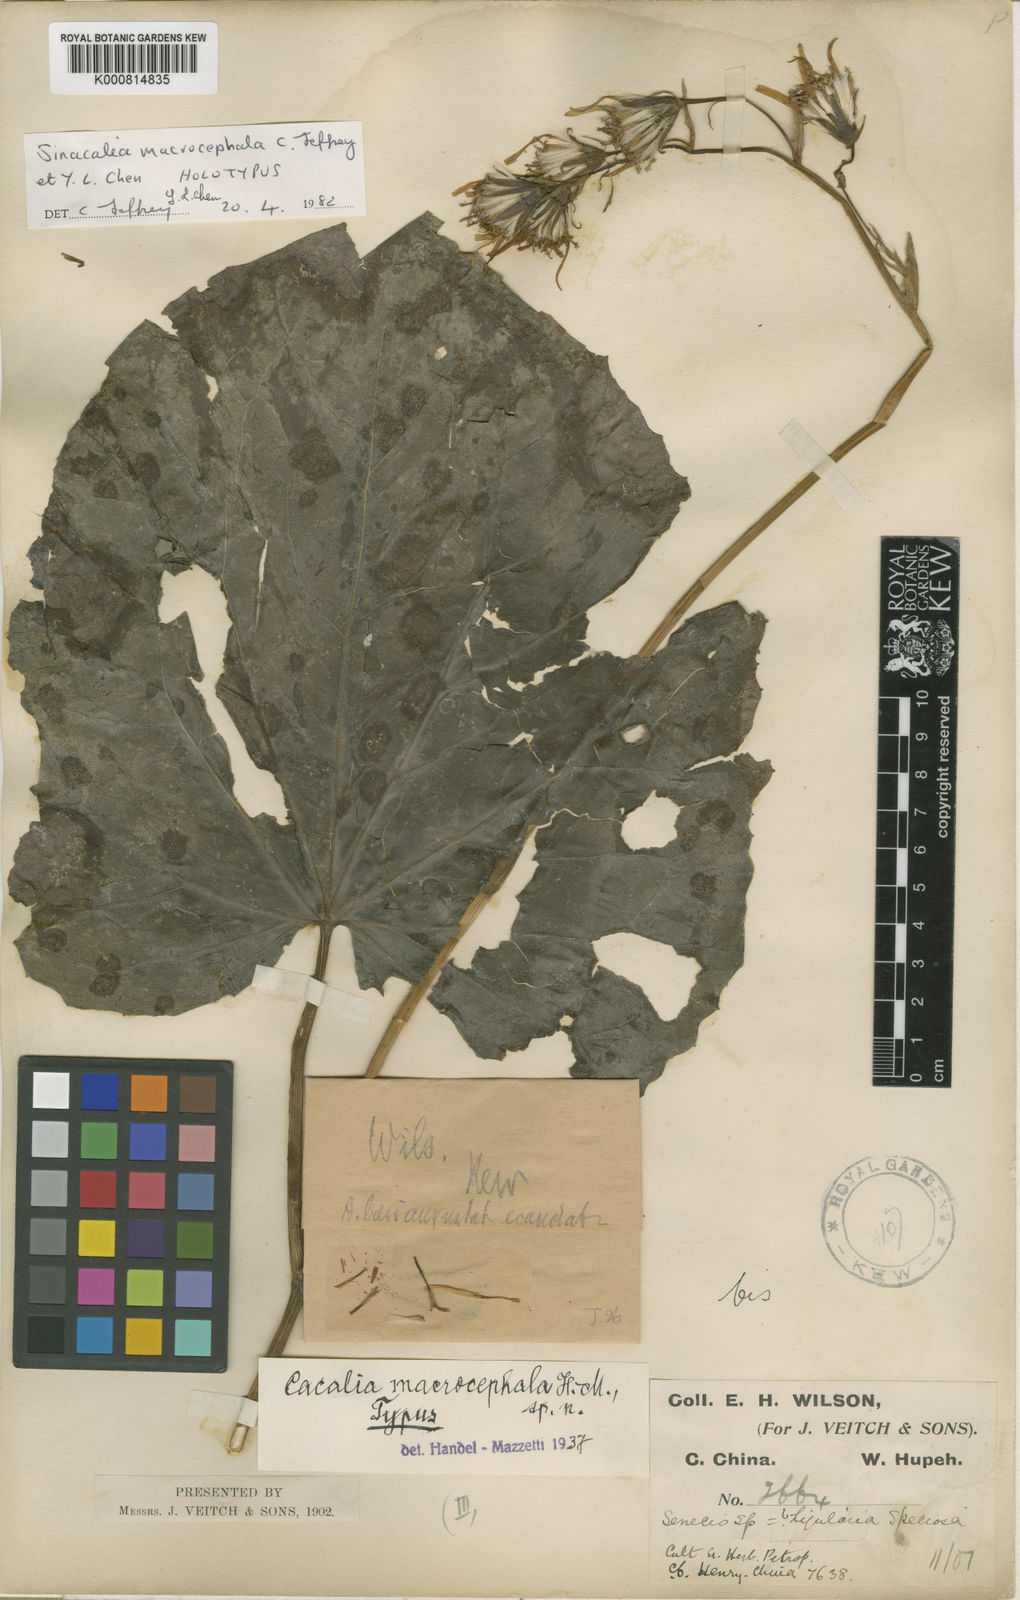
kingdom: Plantae
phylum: Tracheophyta
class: Magnoliopsida
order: Asterales
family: Asteraceae
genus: Sinacalia
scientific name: Sinacalia macrocephala
